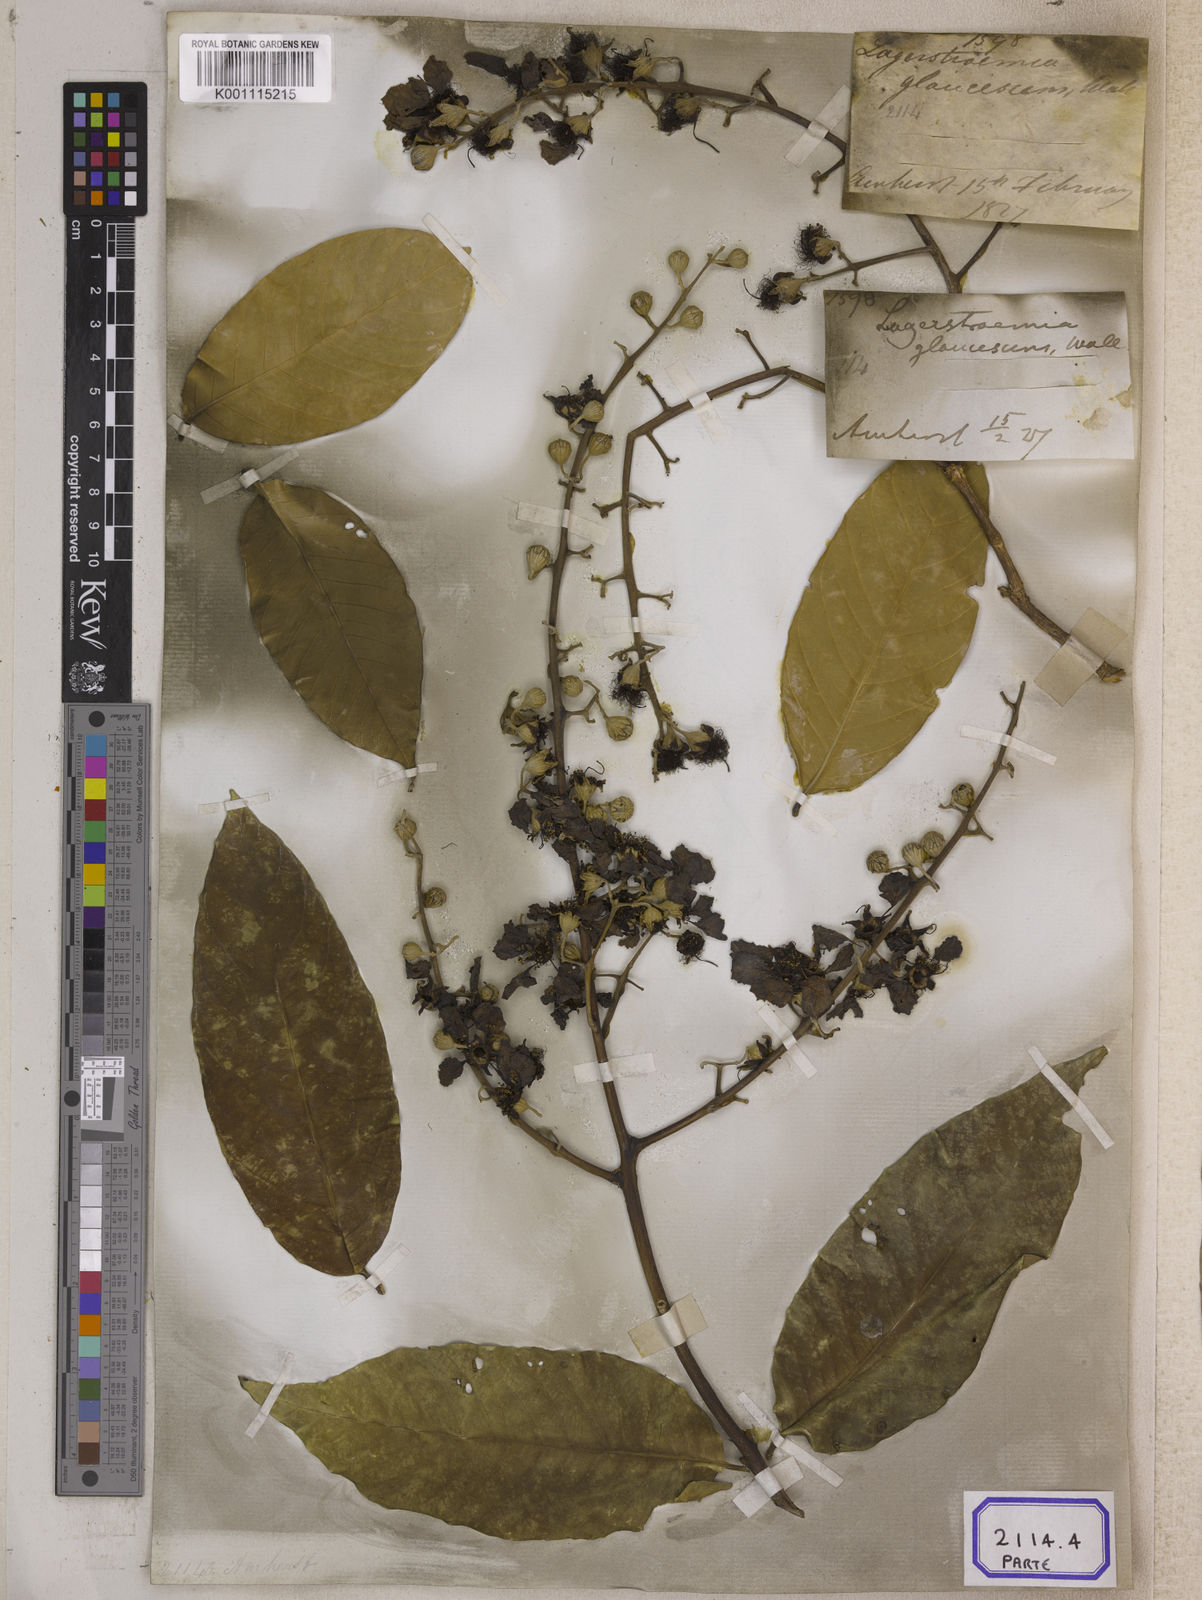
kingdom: Plantae
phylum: Tracheophyta
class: Magnoliopsida
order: Myrtales
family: Lythraceae
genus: Lagerstroemia
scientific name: Lagerstroemia
